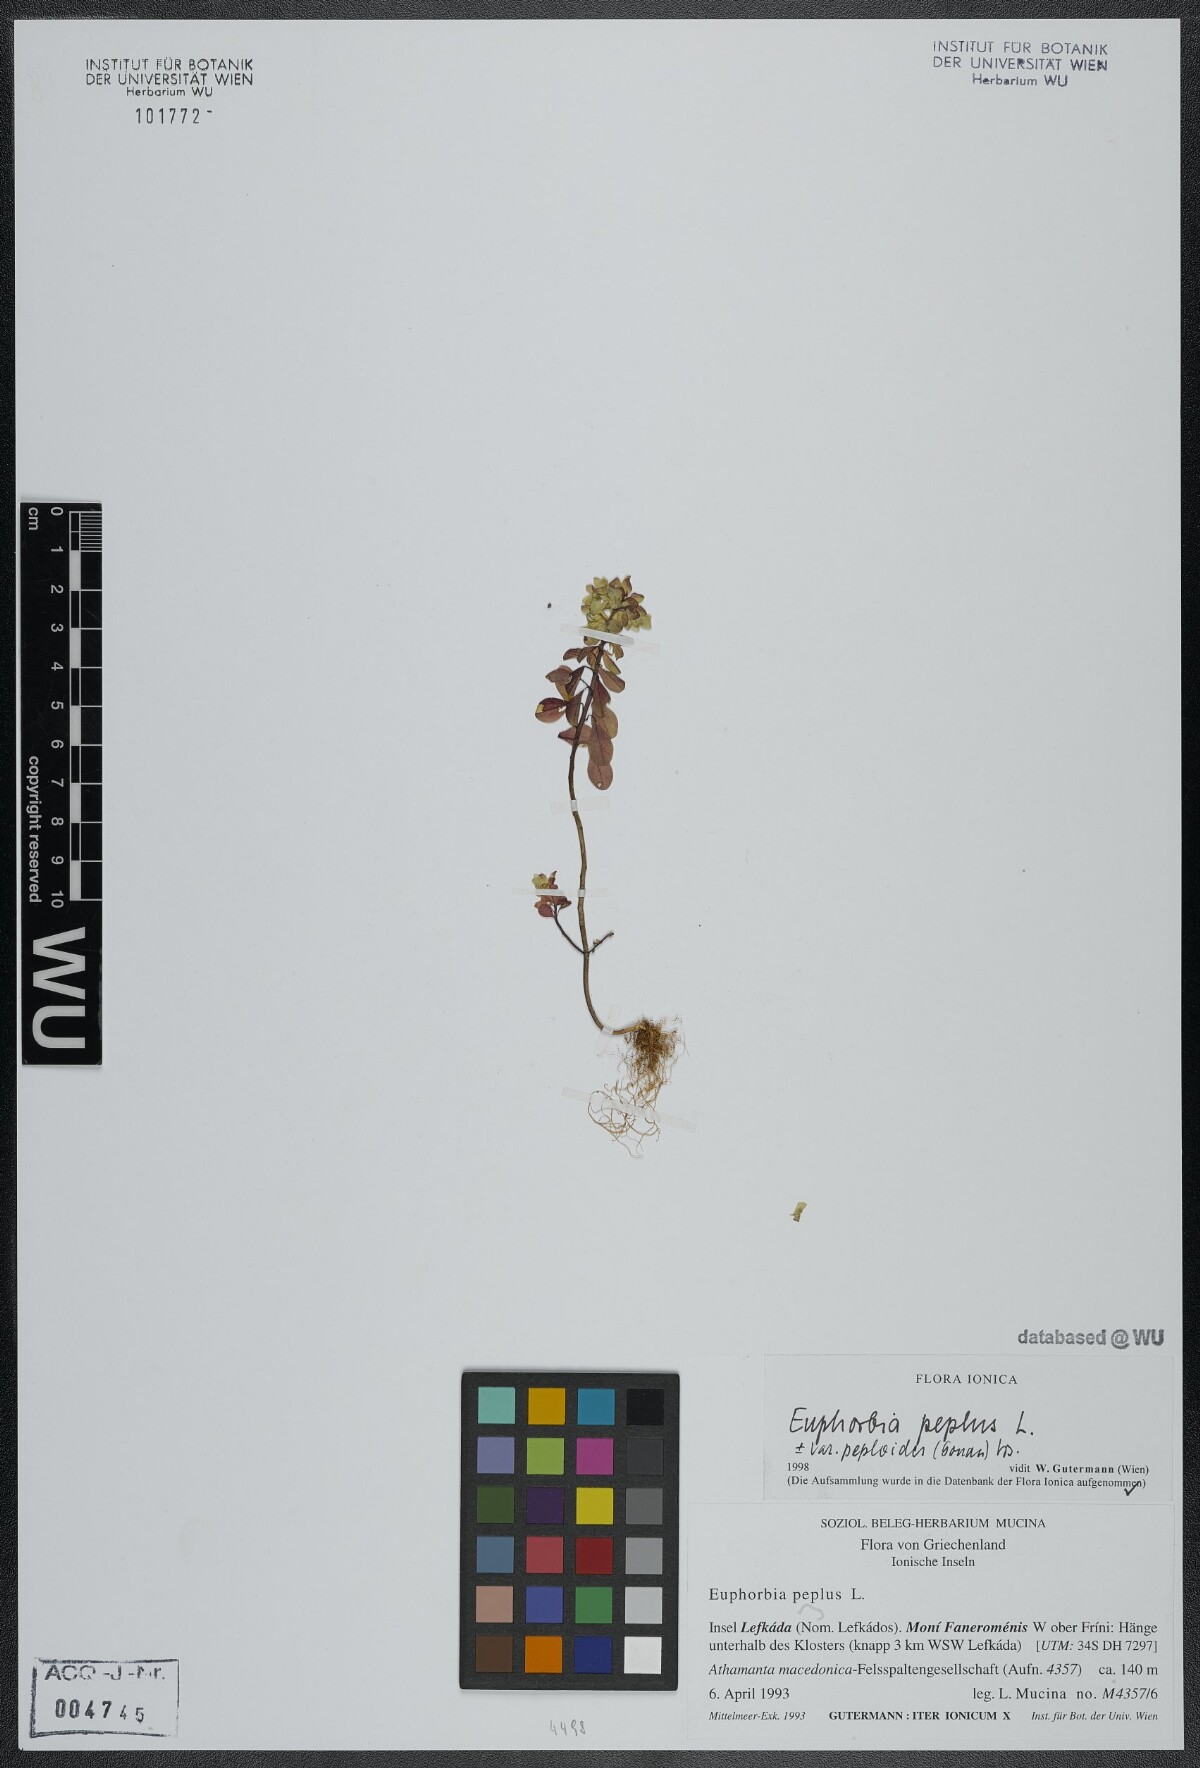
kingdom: Plantae
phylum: Tracheophyta
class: Magnoliopsida
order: Malpighiales
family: Euphorbiaceae
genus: Euphorbia
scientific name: Euphorbia peplus
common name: Petty spurge
